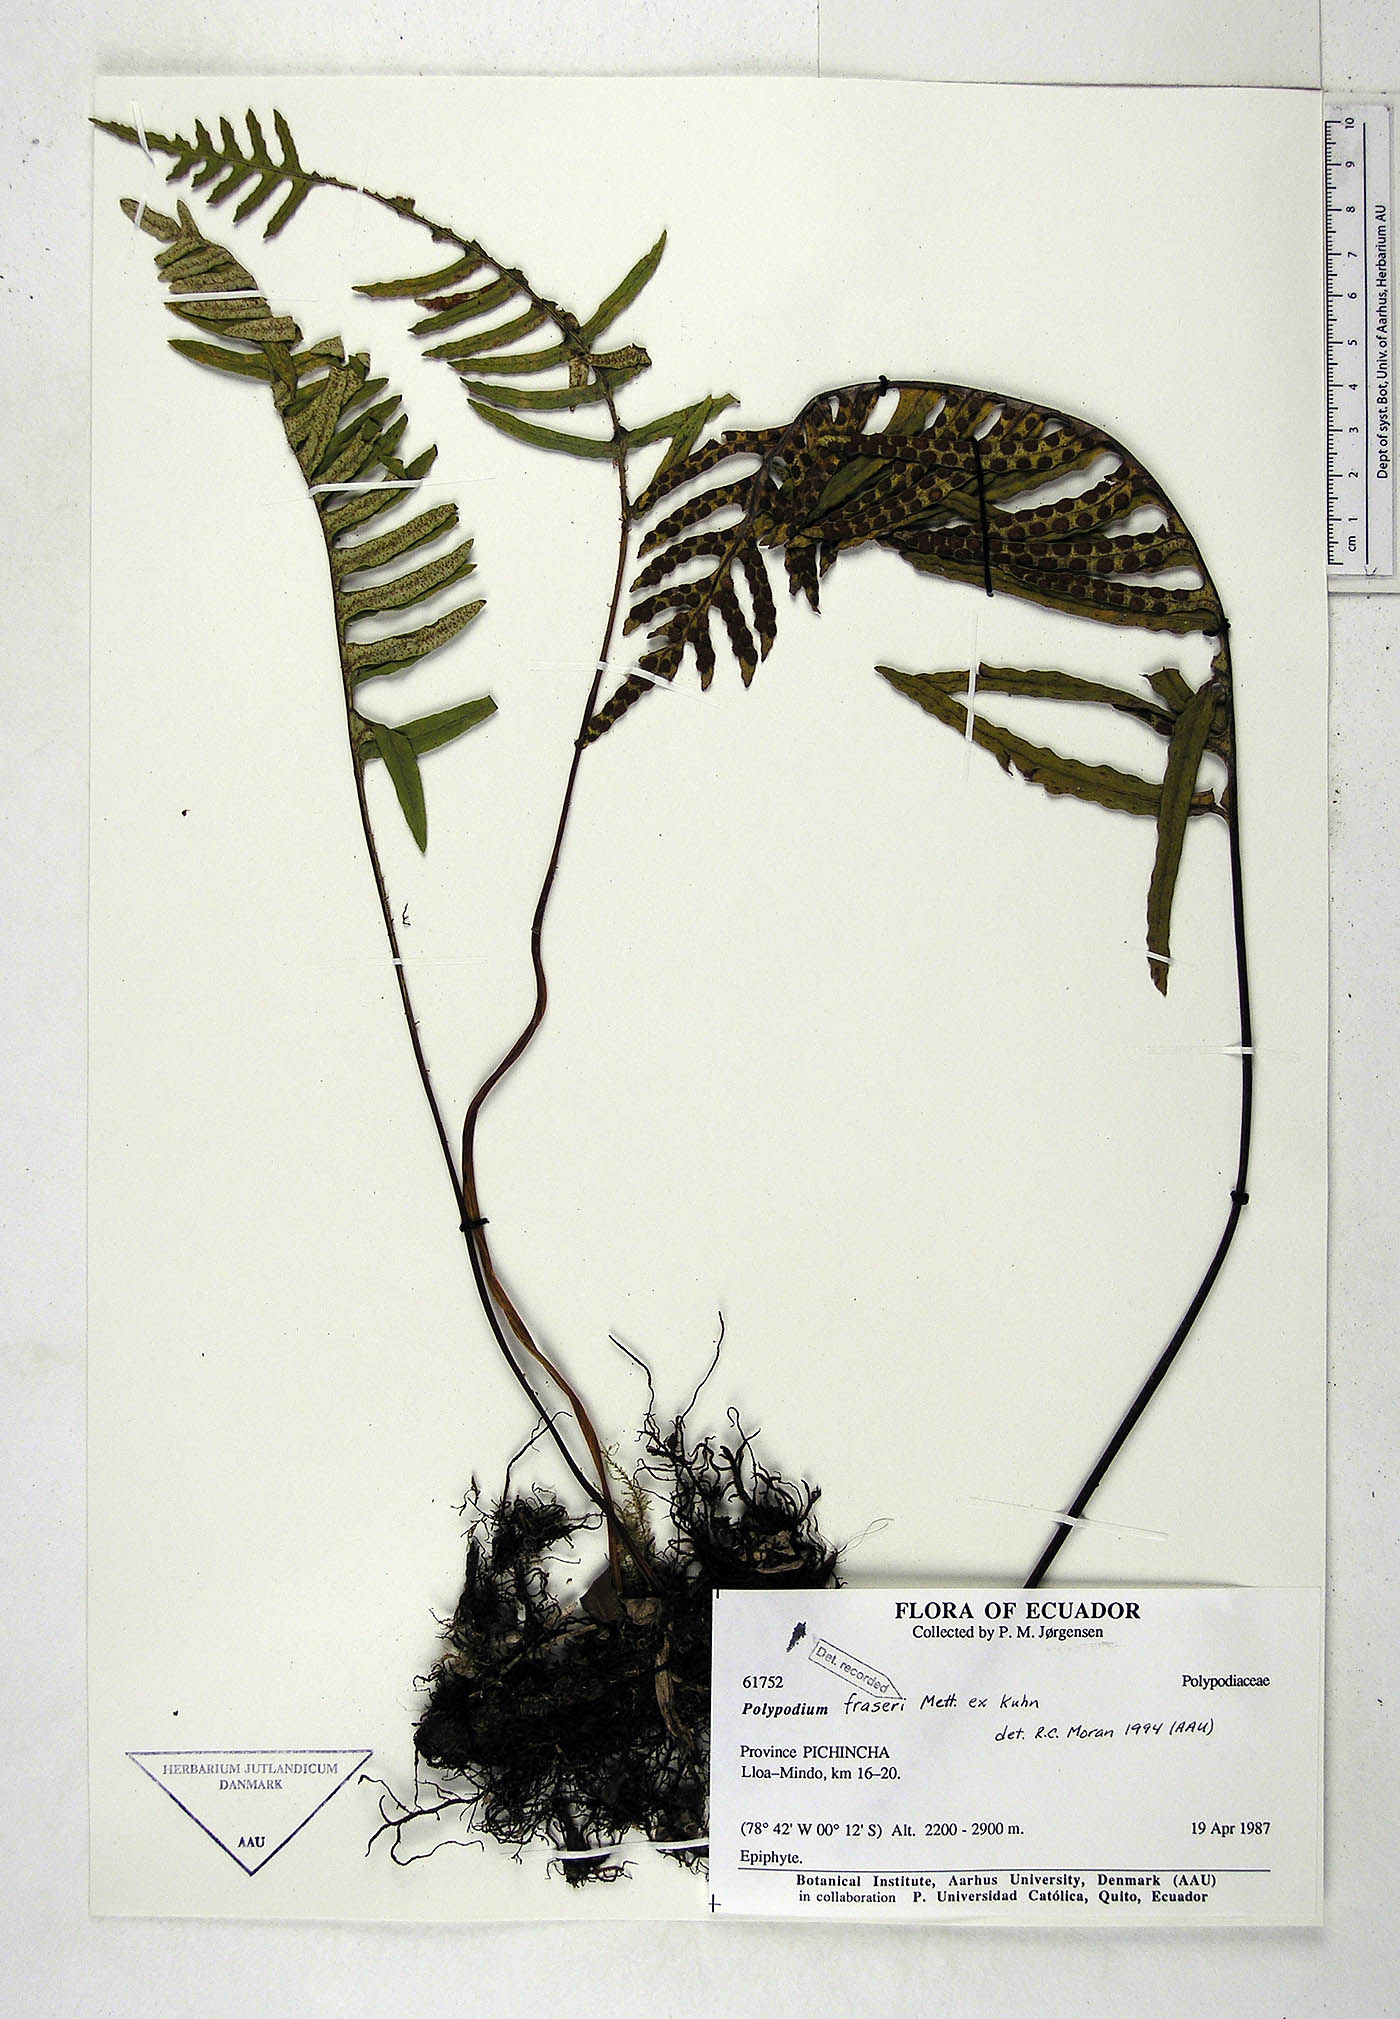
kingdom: Plantae
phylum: Tracheophyta
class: Polypodiopsida
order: Polypodiales
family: Polypodiaceae
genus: Pleopeltis
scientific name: Pleopeltis fraseri
